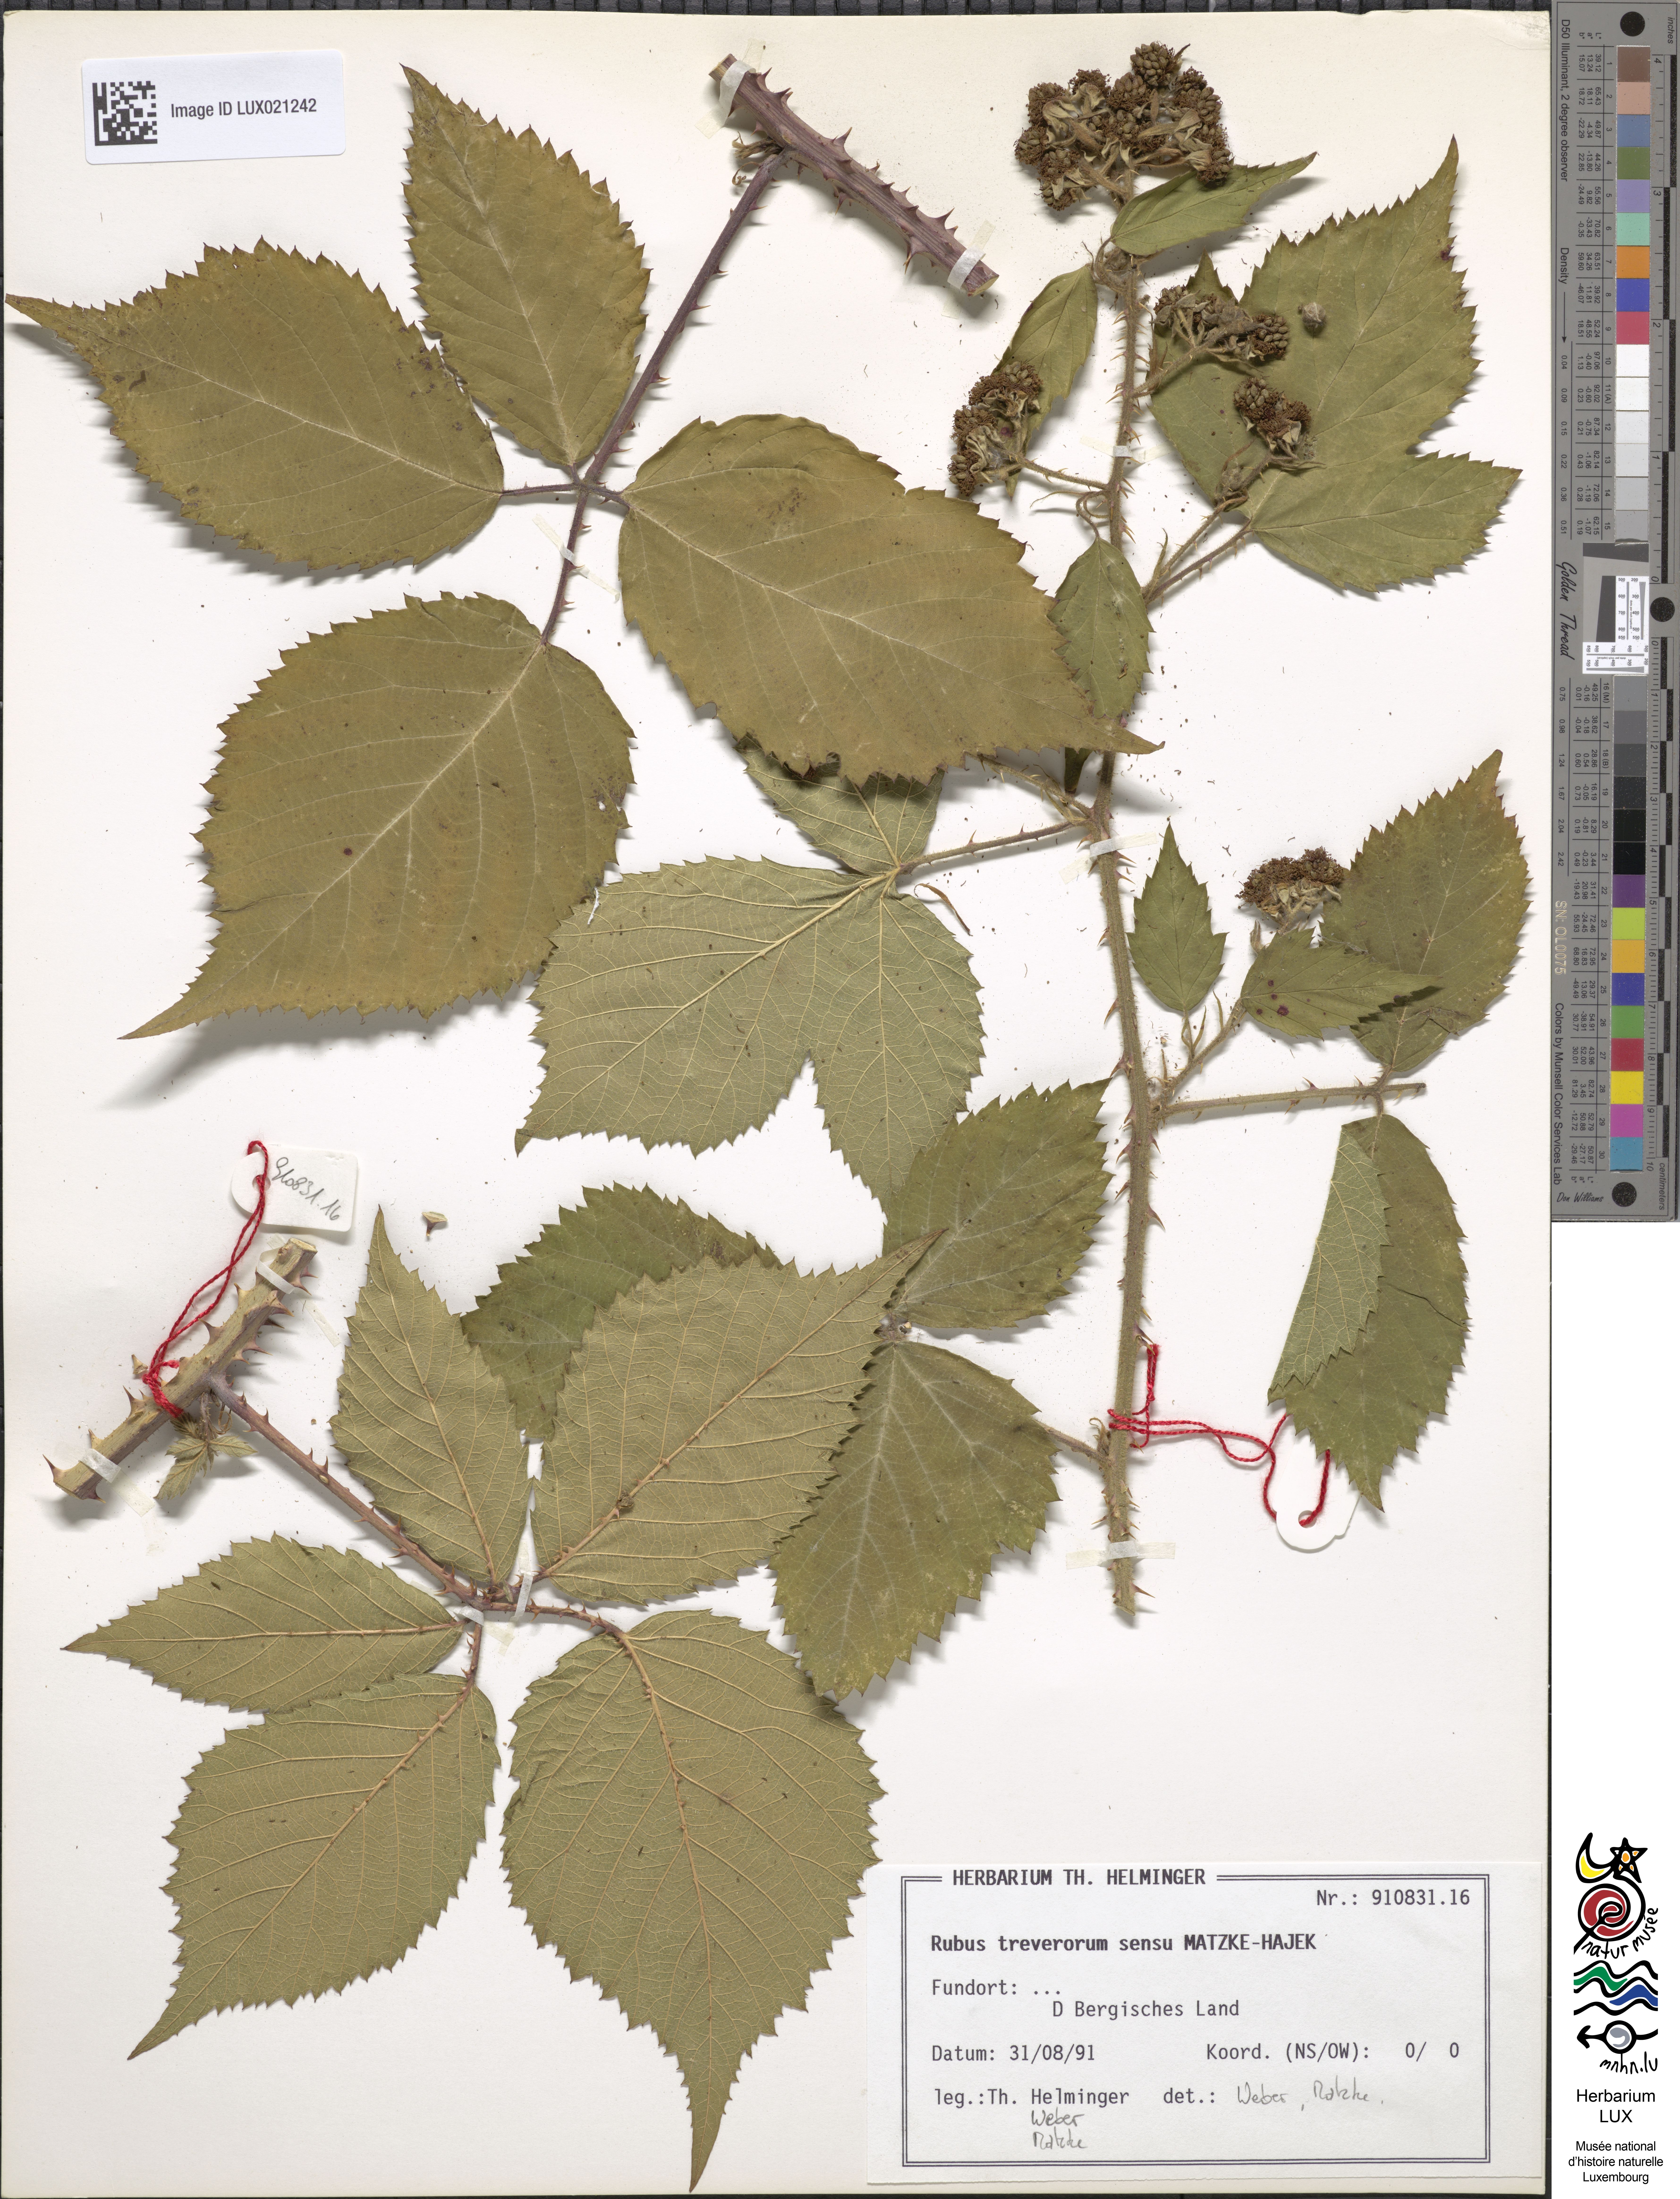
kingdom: Plantae
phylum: Tracheophyta
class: Magnoliopsida
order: Rosales
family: Rosaceae
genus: Rubus
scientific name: Rubus
